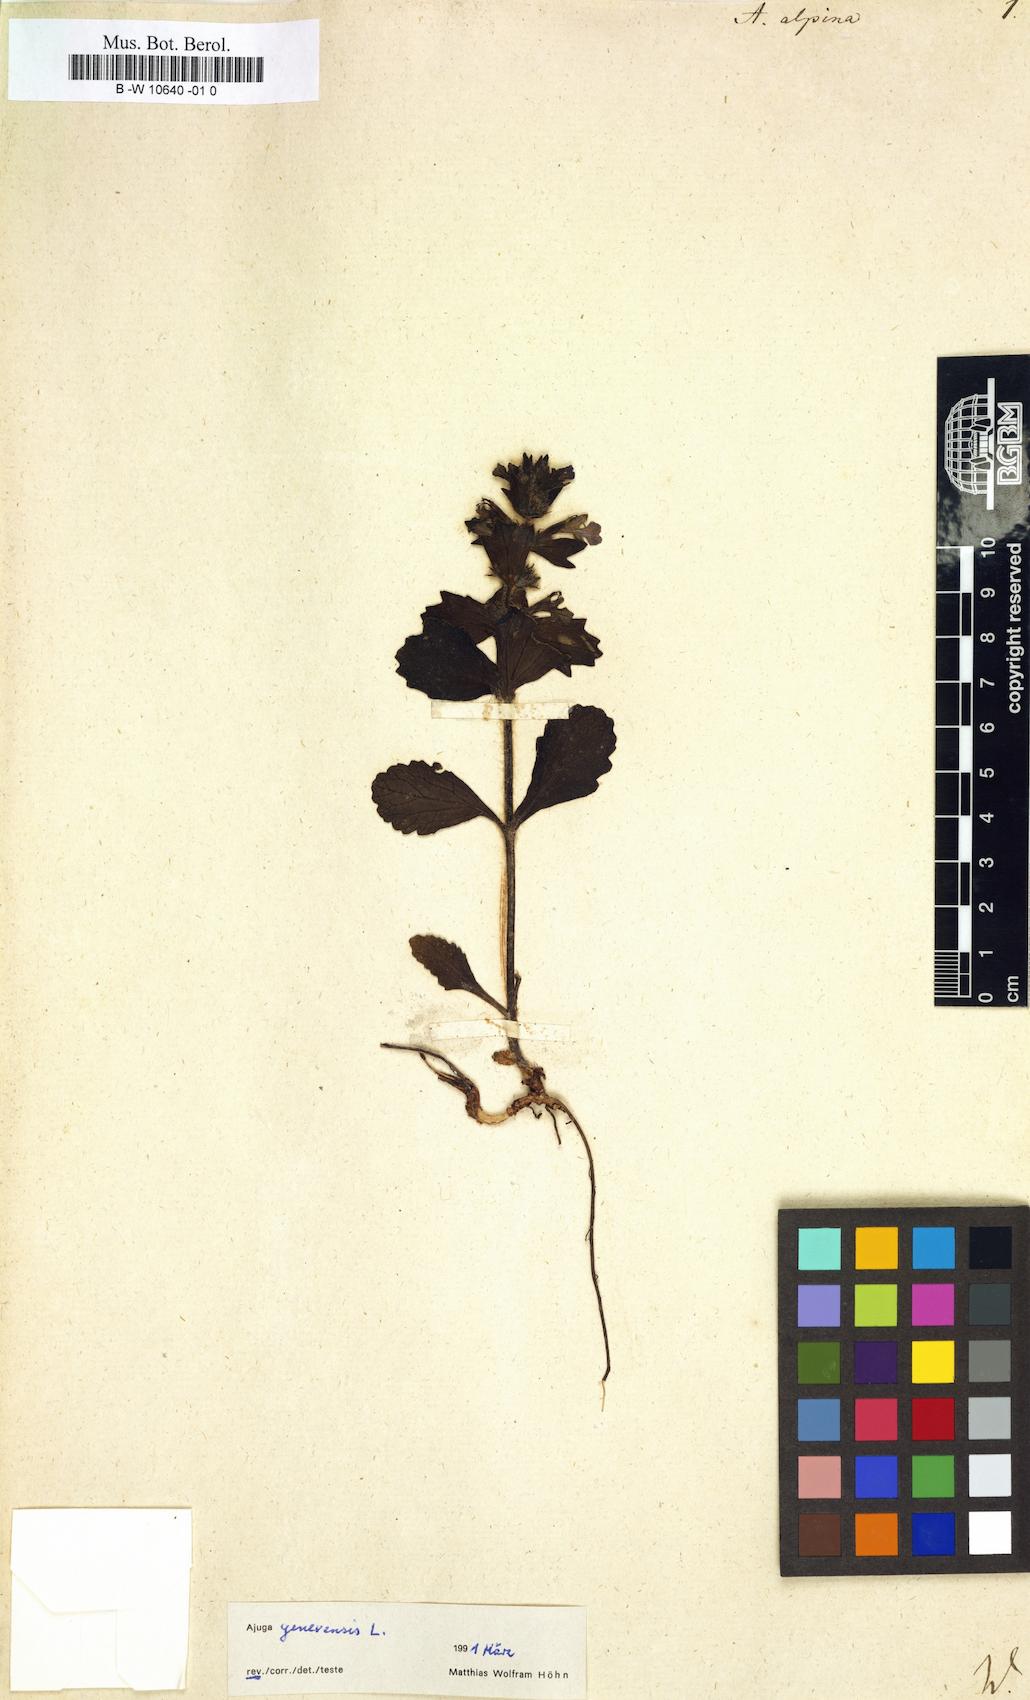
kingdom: Plantae
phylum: Tracheophyta
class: Magnoliopsida
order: Lamiales
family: Lamiaceae
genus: Ajuga
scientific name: Ajuga genevensis
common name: Blue bugle
